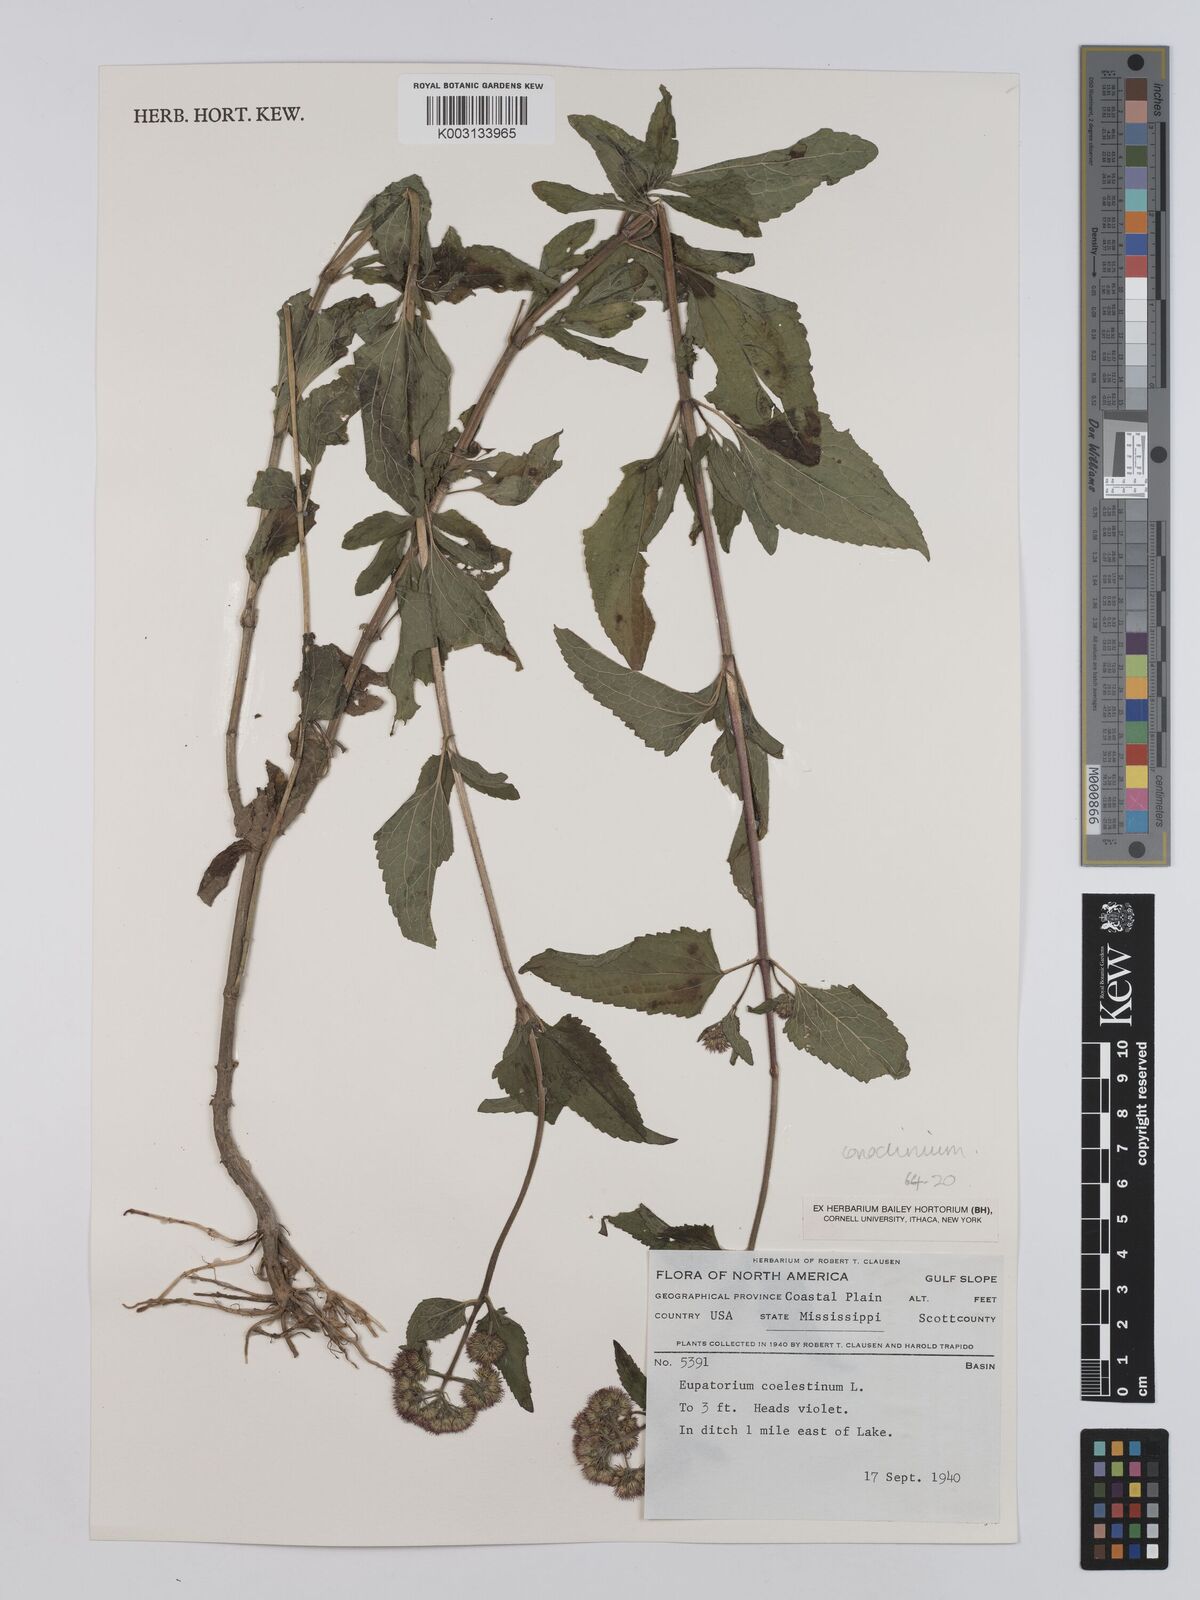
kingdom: Plantae
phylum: Tracheophyta
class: Magnoliopsida
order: Asterales
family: Asteraceae
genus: Conoclinium
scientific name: Conoclinium coelestinum
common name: Blue mistflower
